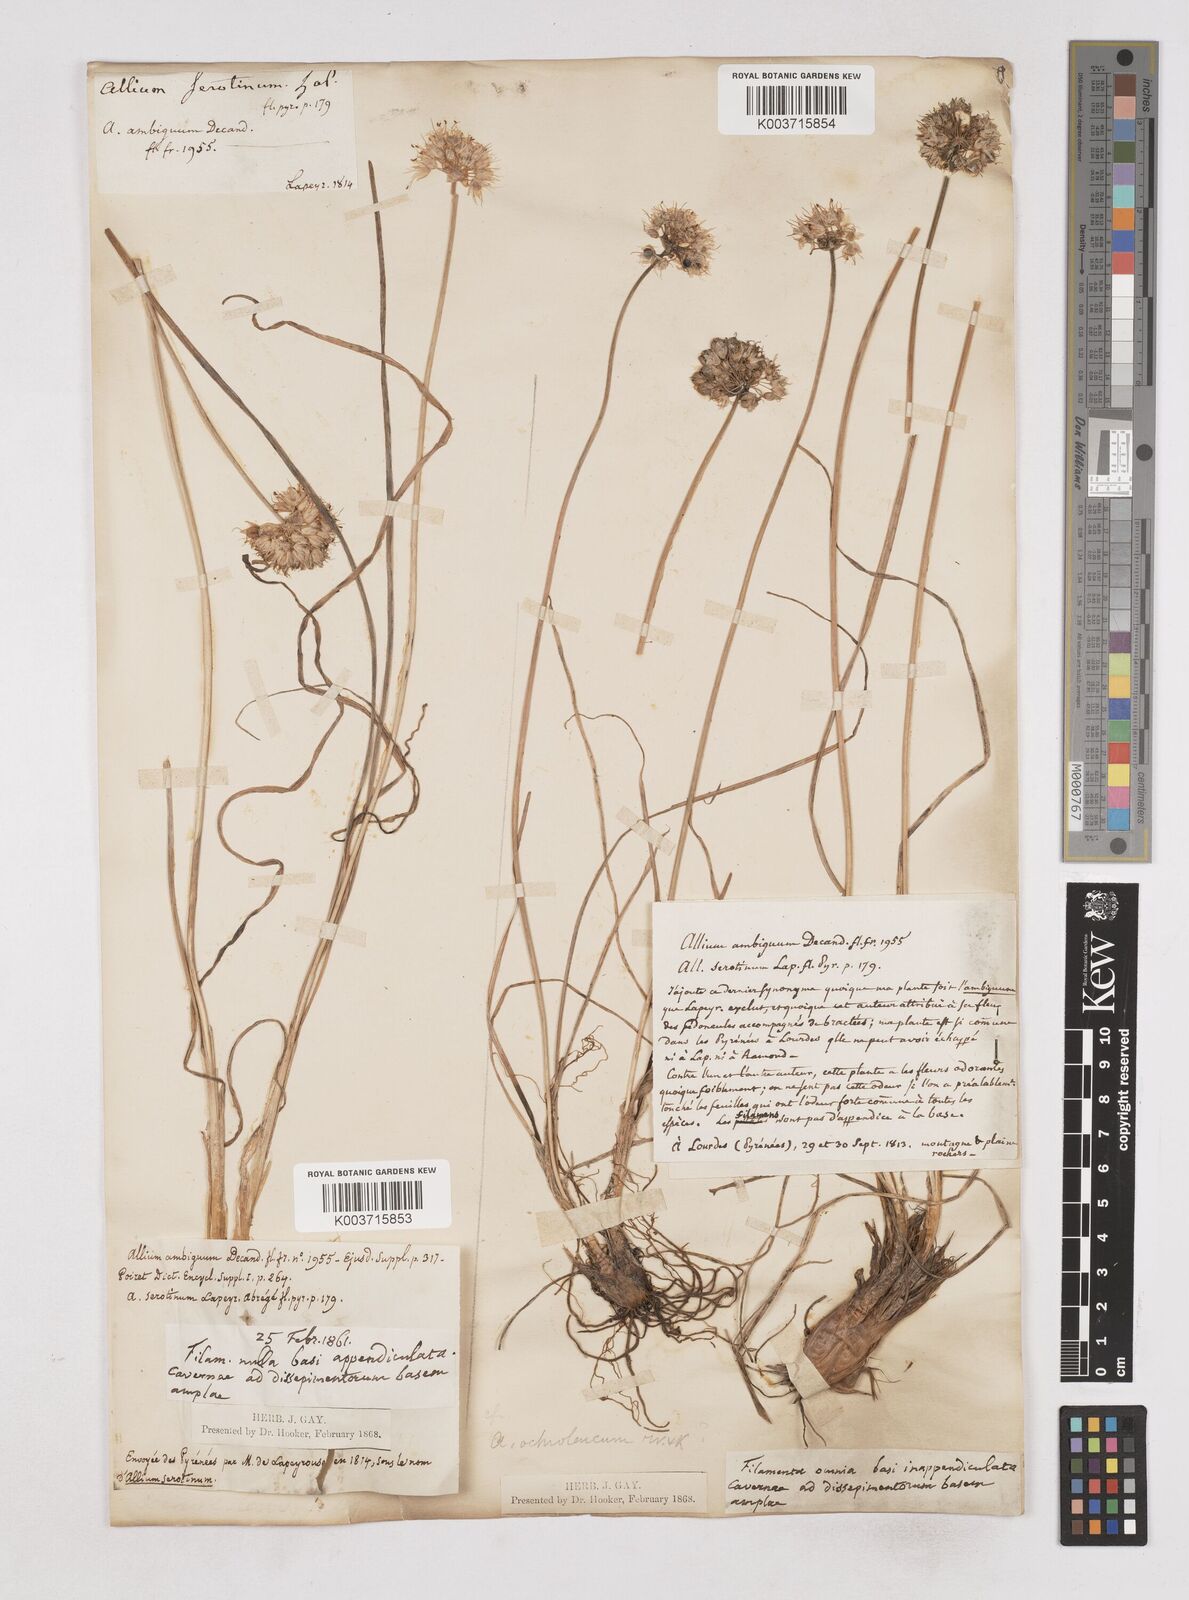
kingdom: Plantae
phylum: Tracheophyta
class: Liliopsida
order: Asparagales
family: Amaryllidaceae
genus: Allium
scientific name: Allium ericetorum
